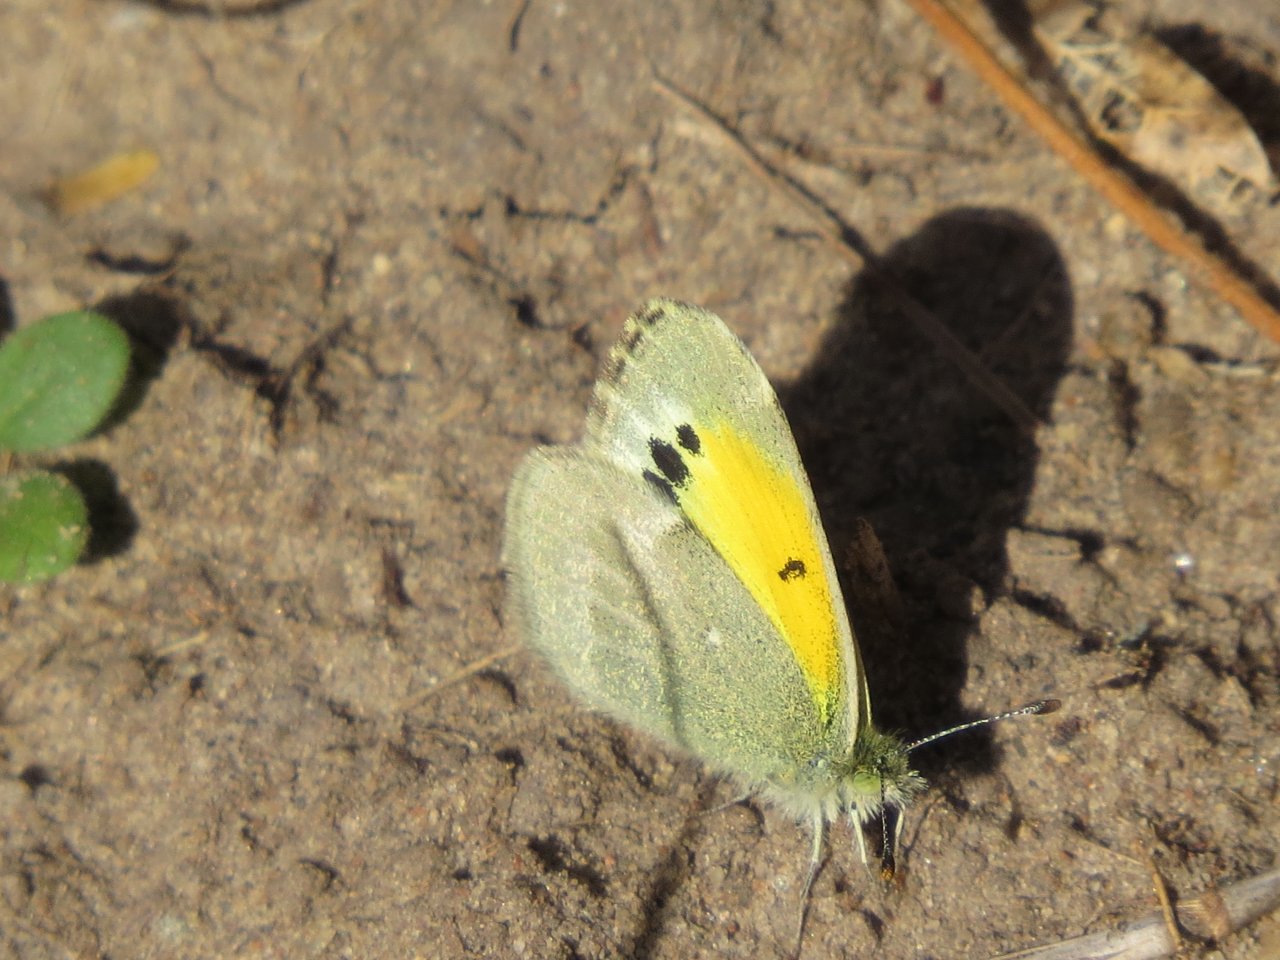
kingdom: Animalia
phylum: Arthropoda
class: Insecta
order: Lepidoptera
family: Pieridae
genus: Nathalis
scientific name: Nathalis iole
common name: Dainty Sulphur
